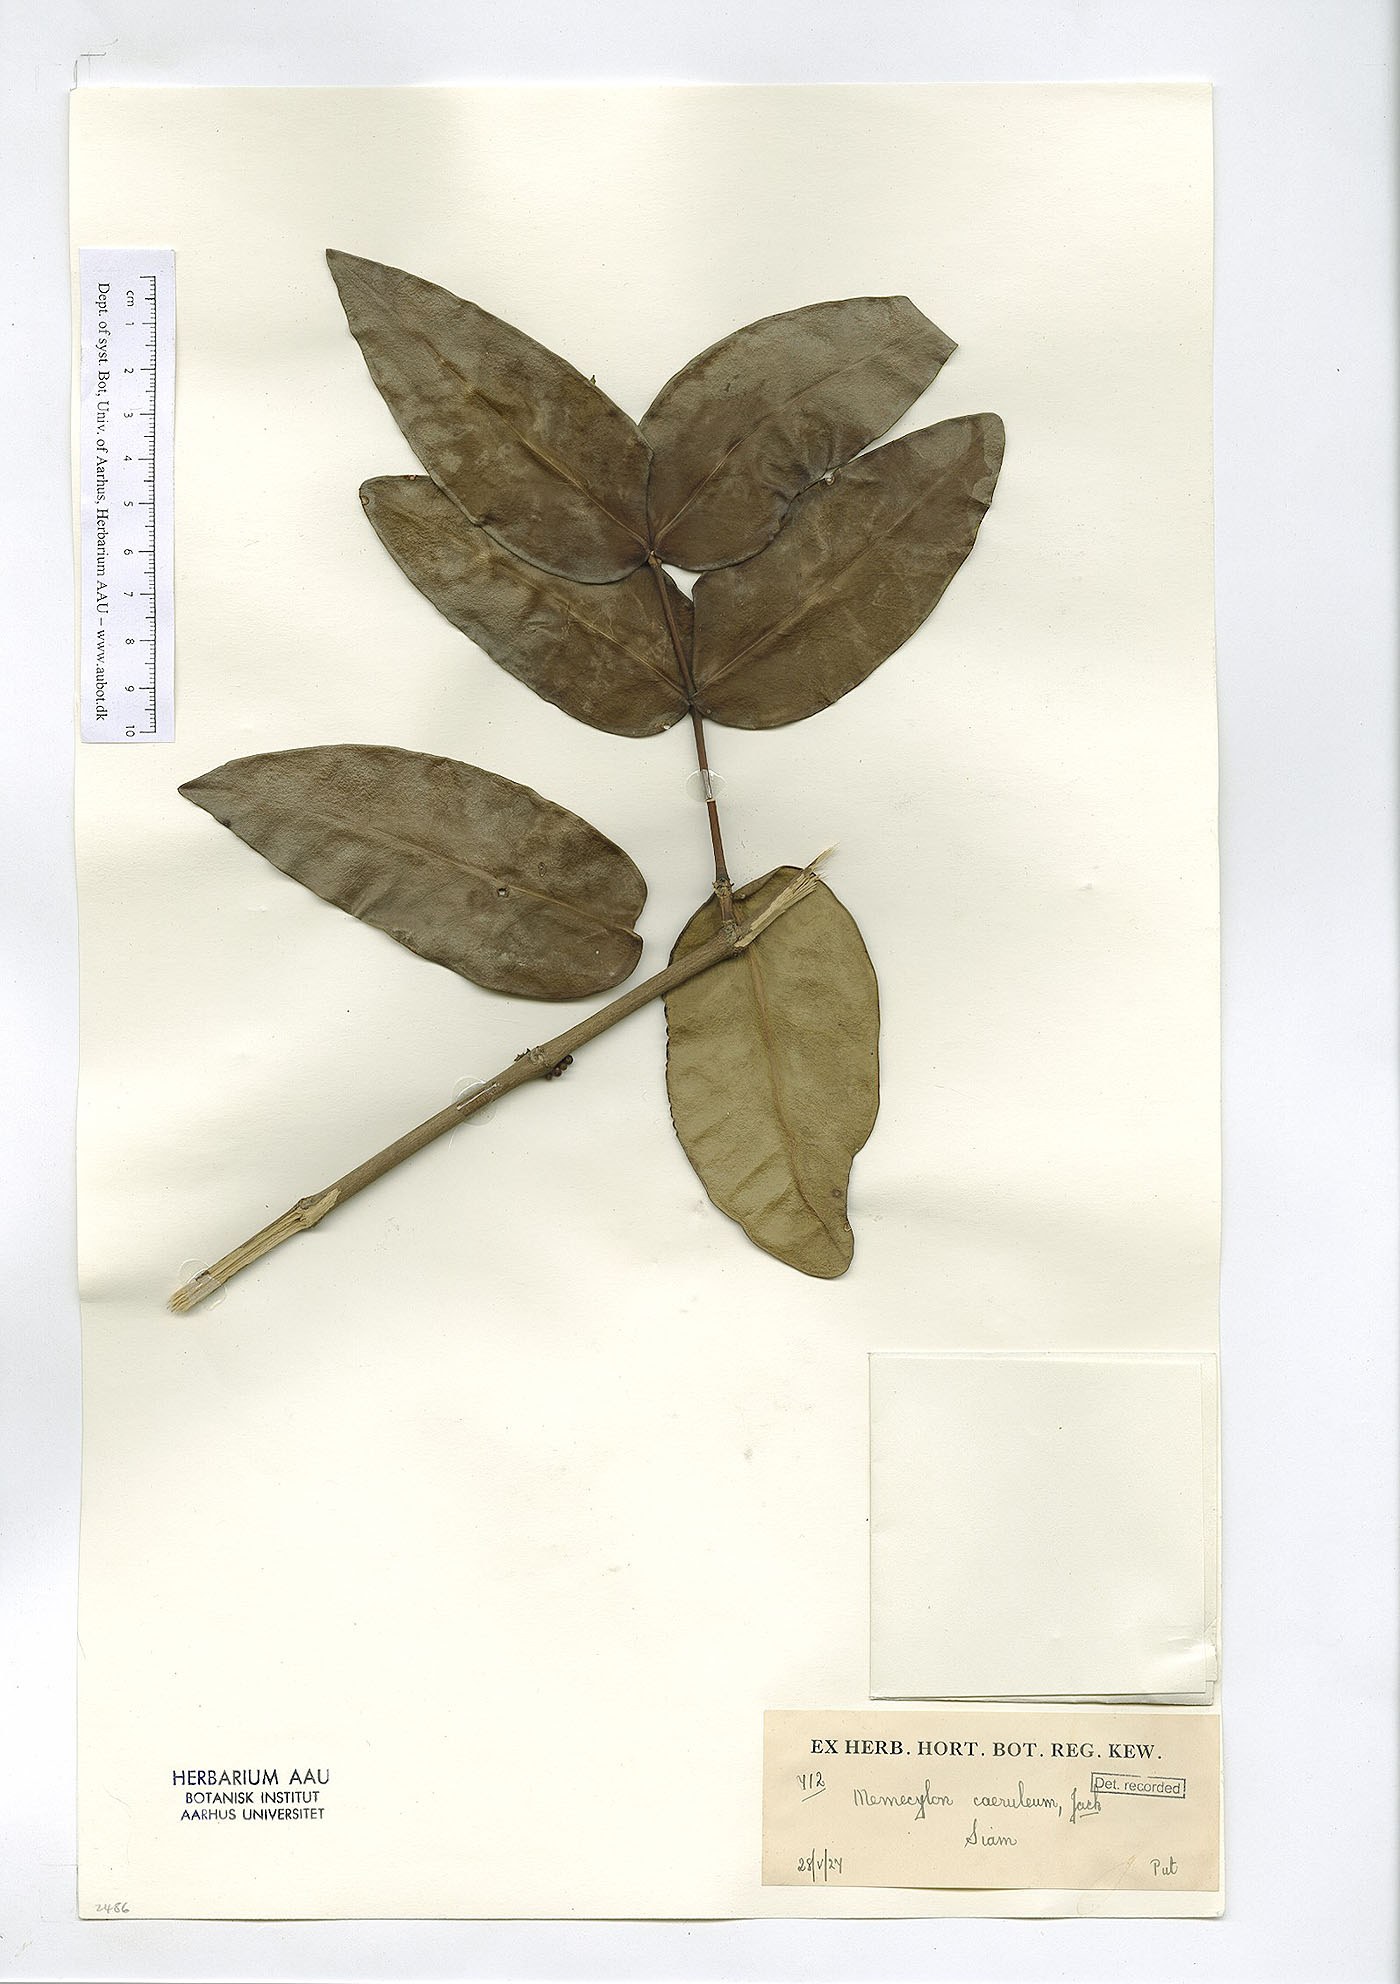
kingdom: Plantae
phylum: Tracheophyta
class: Magnoliopsida
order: Myrtales
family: Melastomataceae
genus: Memecylon
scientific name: Memecylon caeruleum
